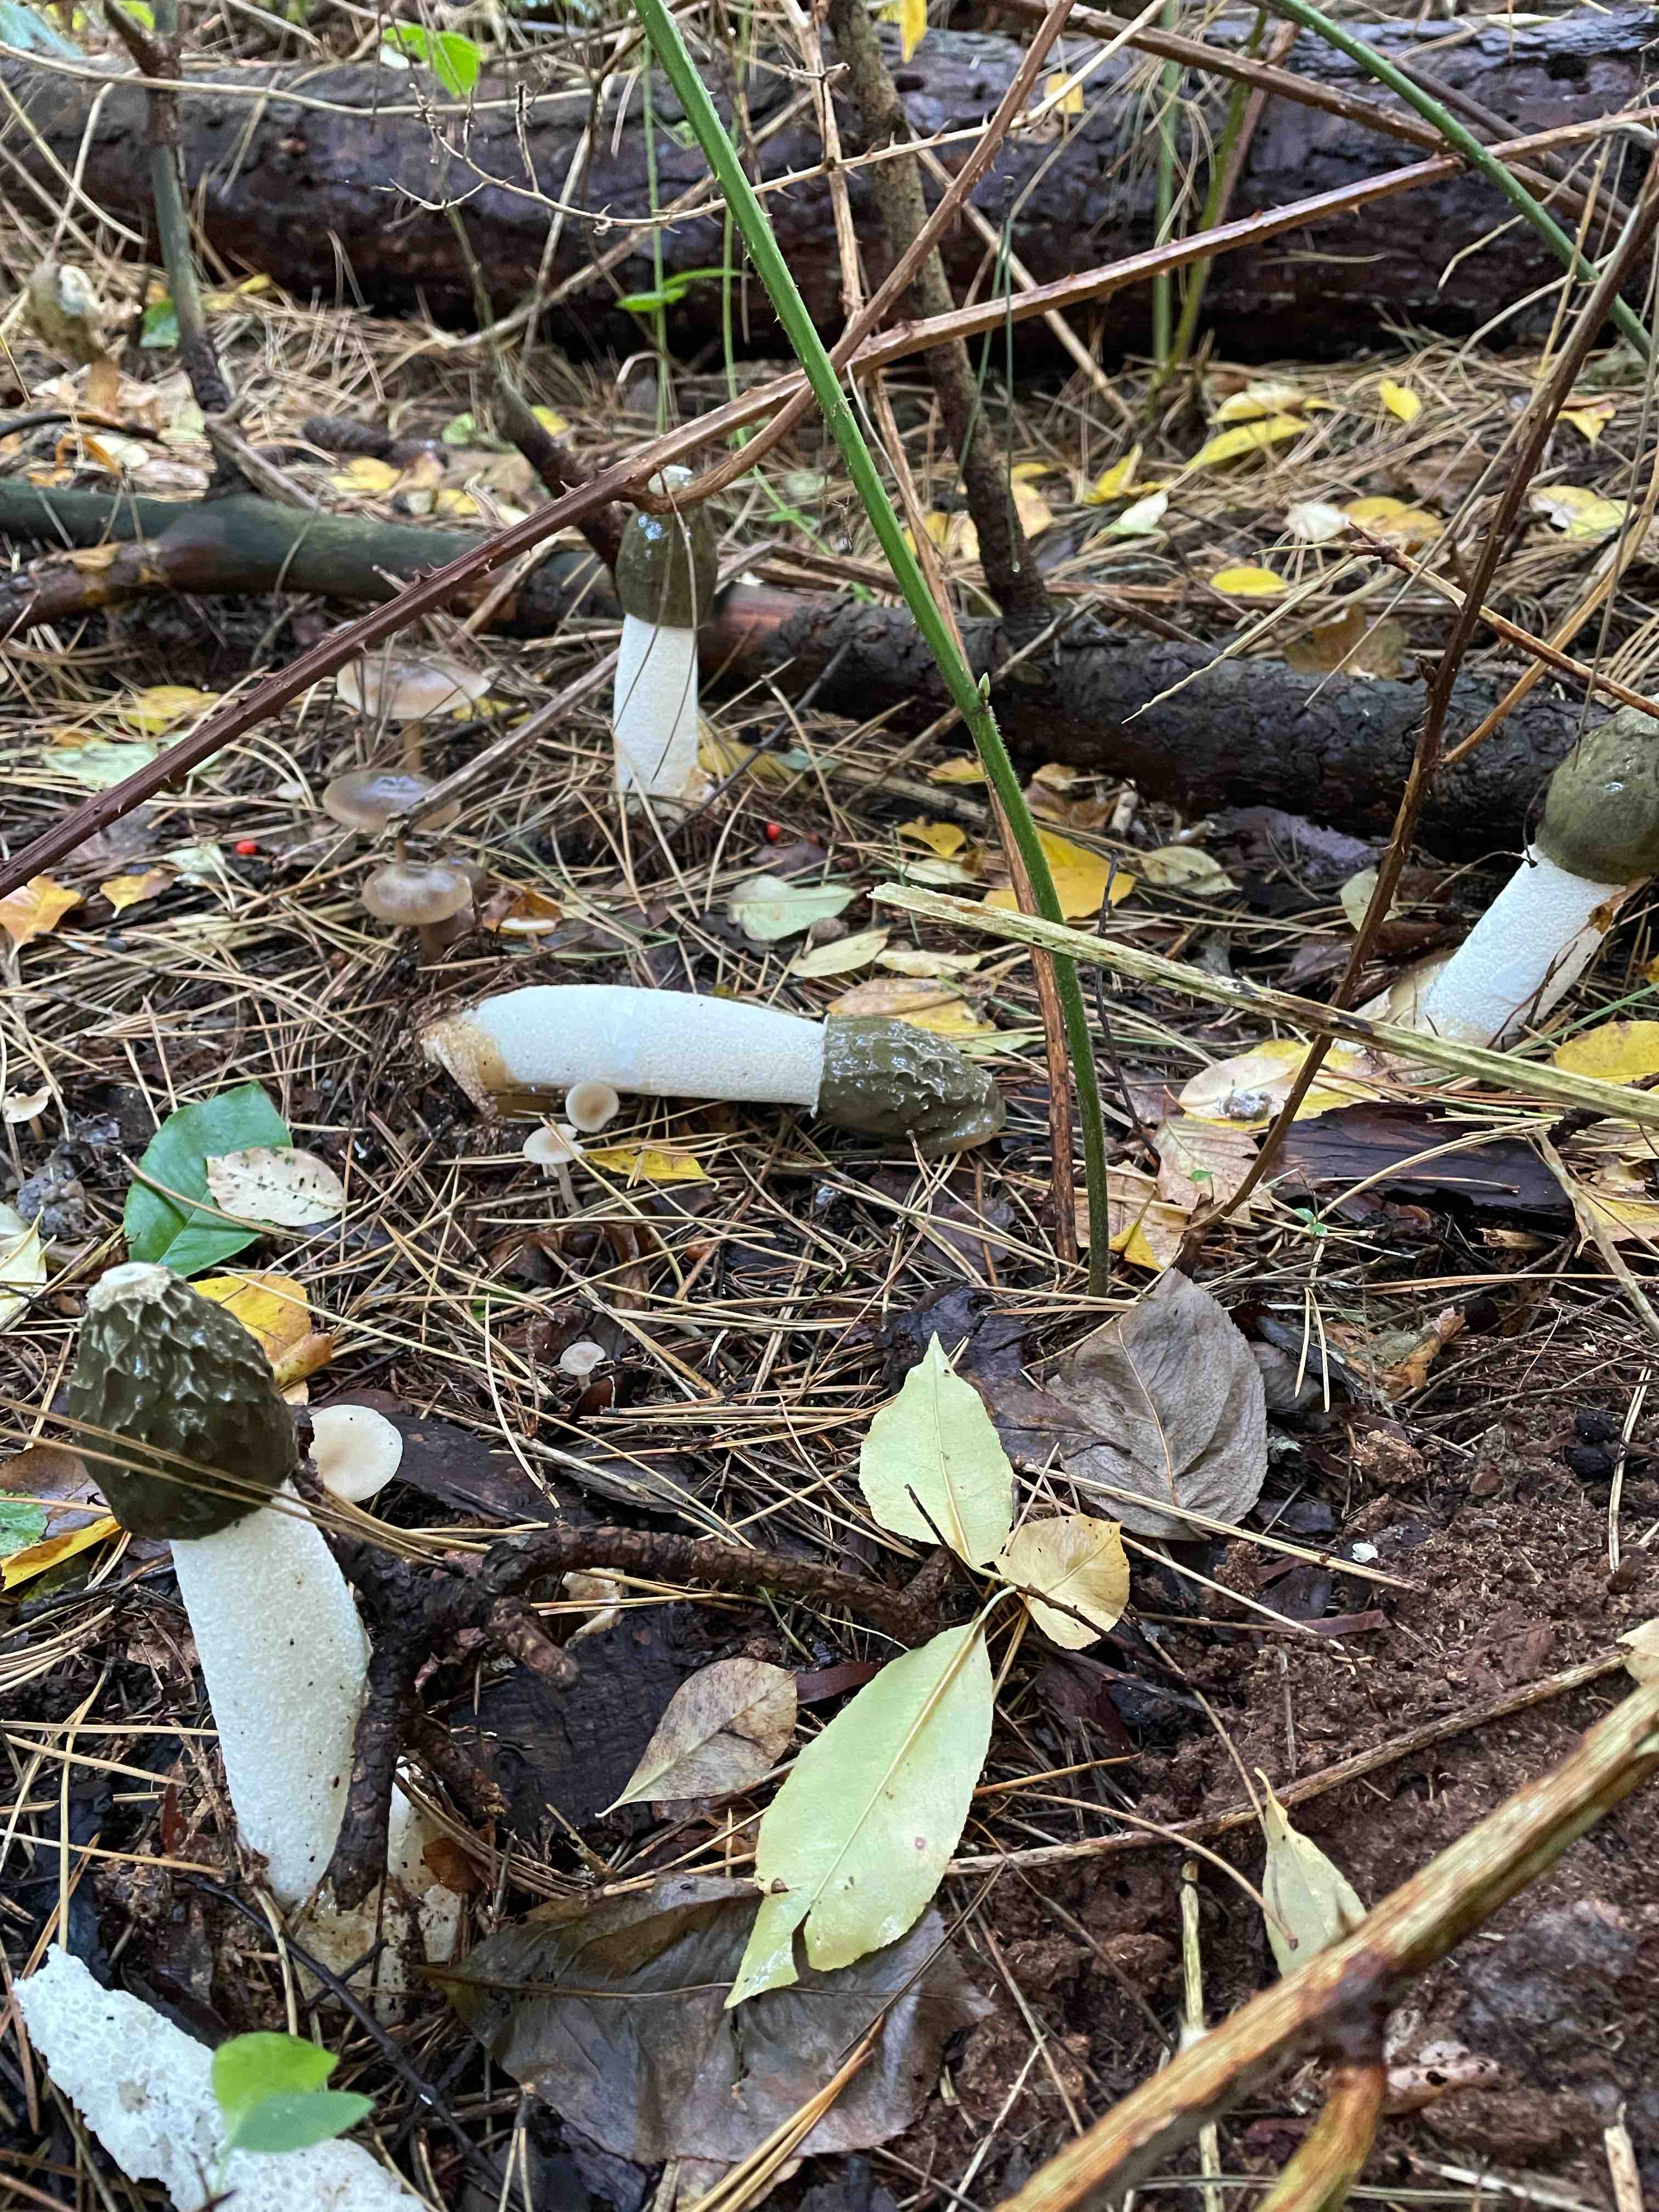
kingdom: Fungi
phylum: Basidiomycota
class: Agaricomycetes
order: Phallales
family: Phallaceae
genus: Phallus
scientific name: Phallus impudicus
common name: almindelig stinksvamp
